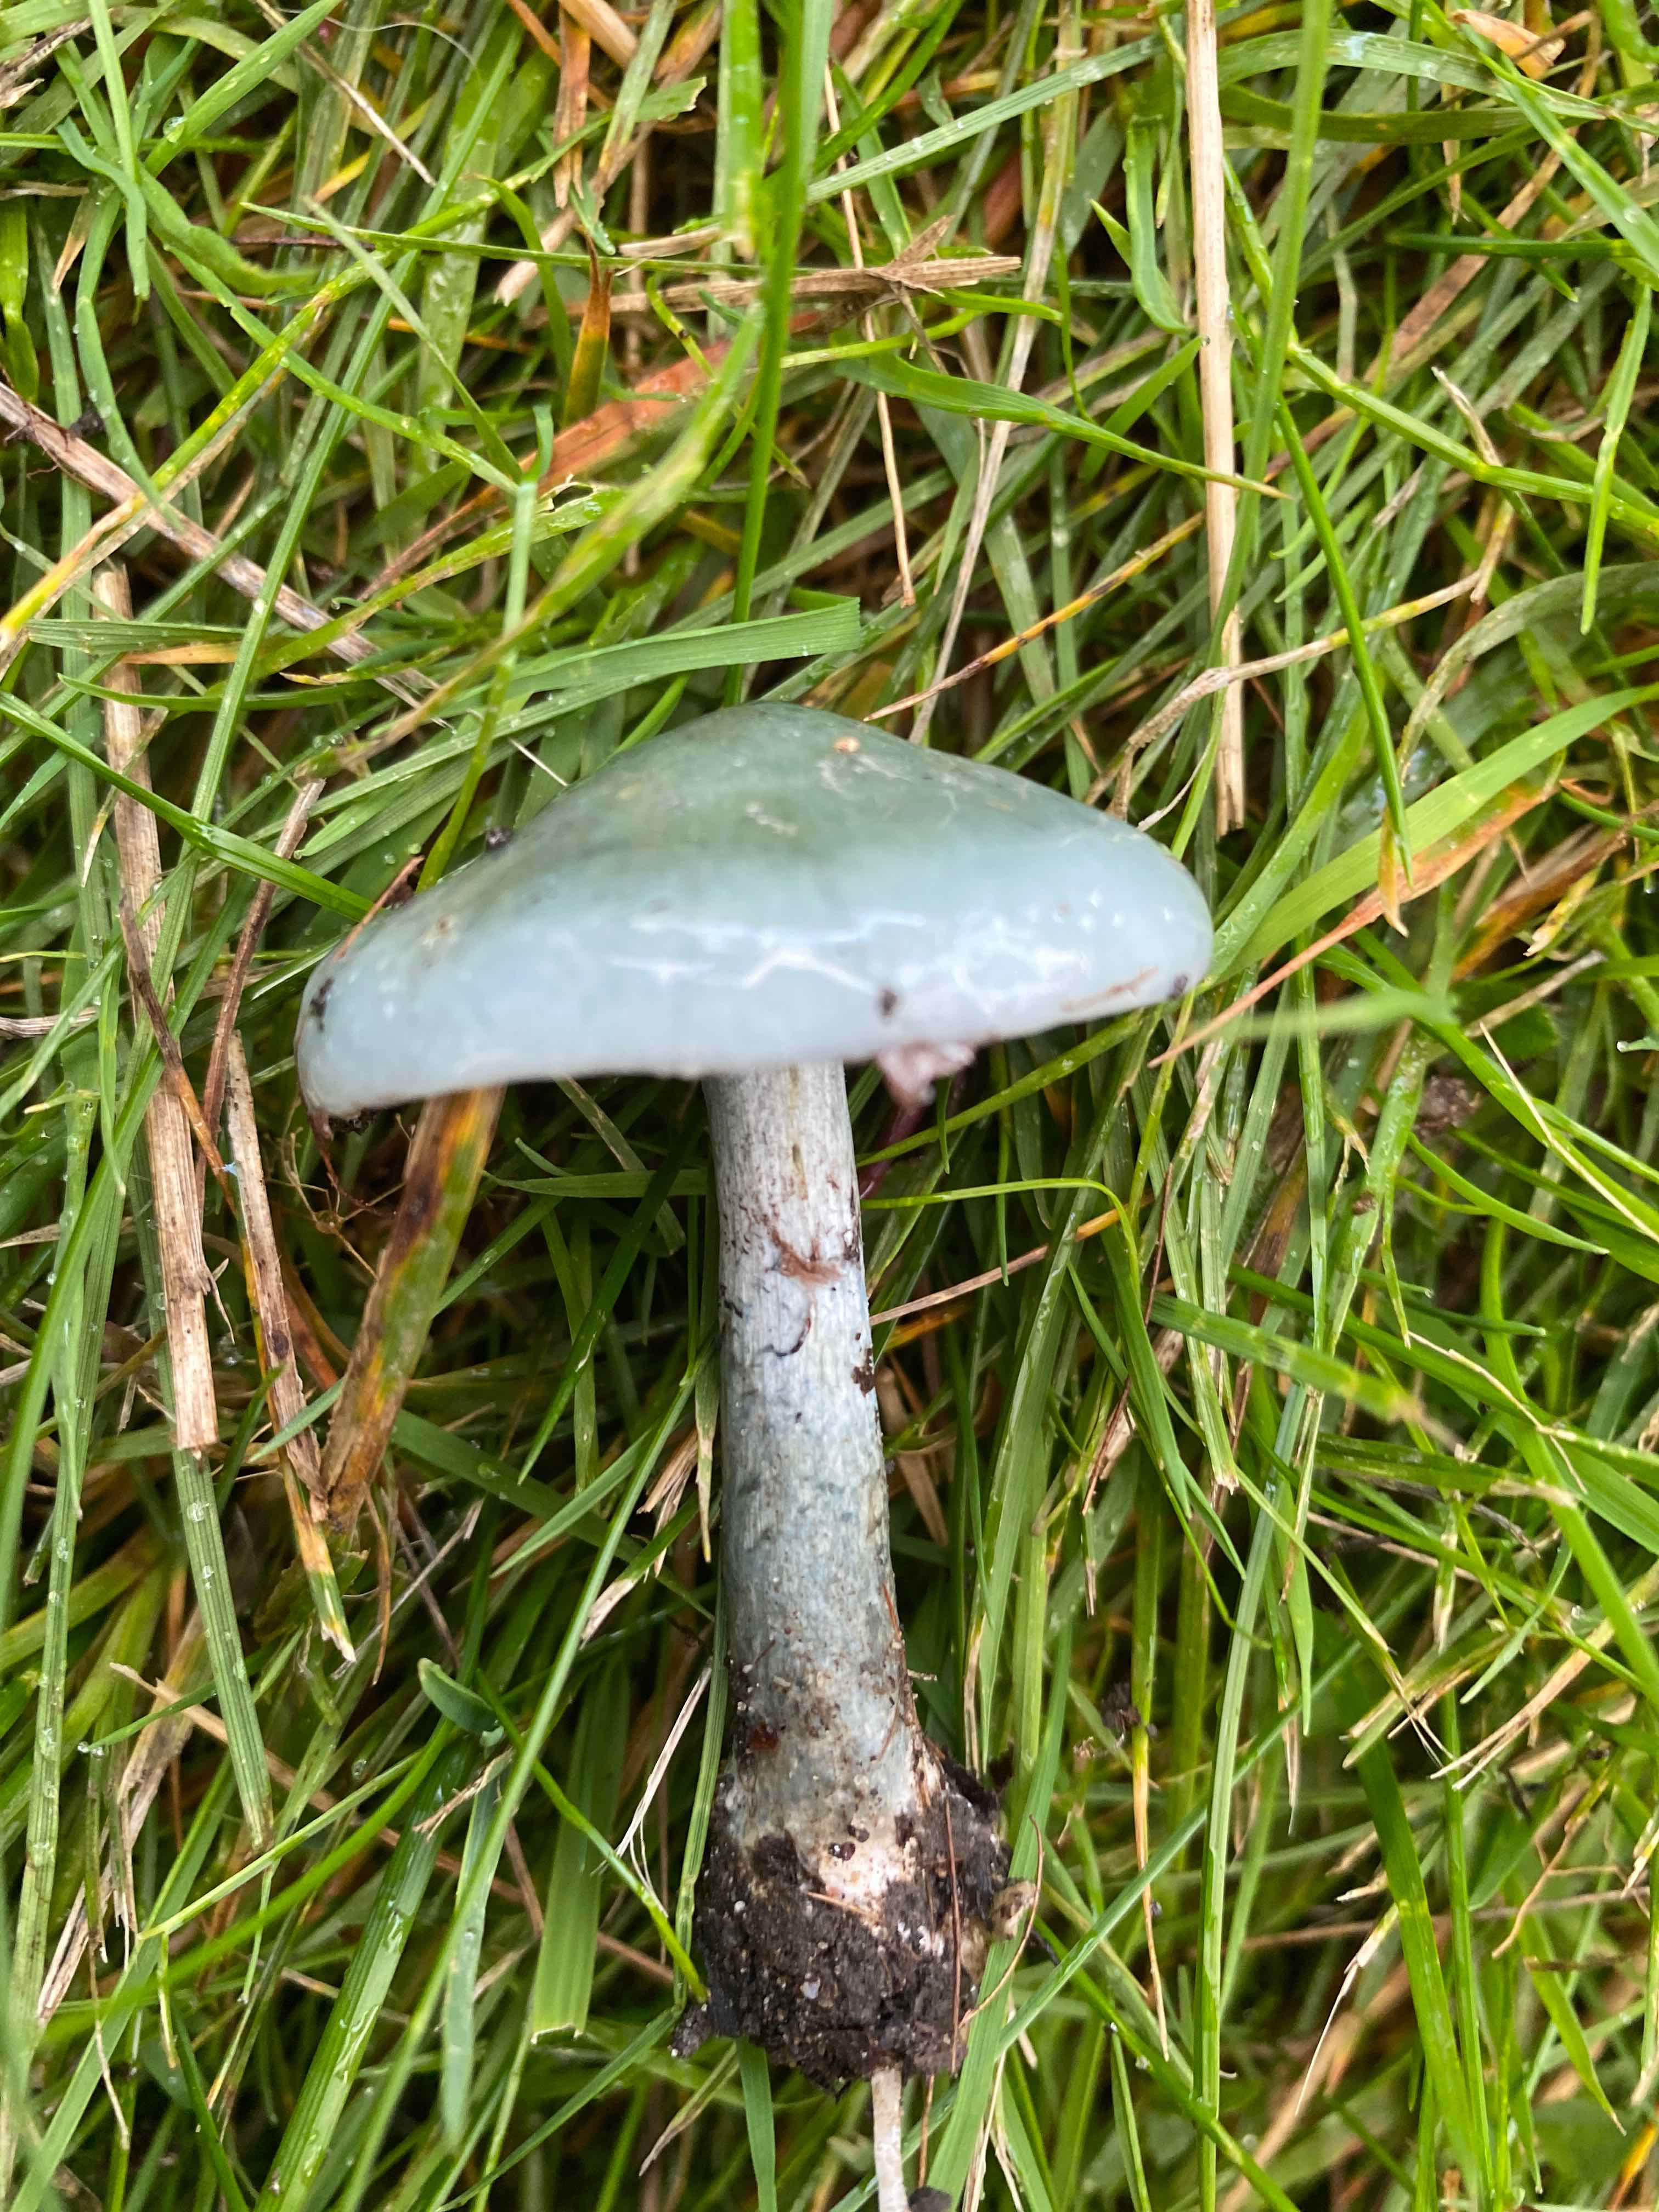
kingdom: Fungi
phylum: Basidiomycota
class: Agaricomycetes
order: Agaricales
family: Strophariaceae
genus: Stropharia
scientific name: Stropharia cyanea
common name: blågrøn bredblad
